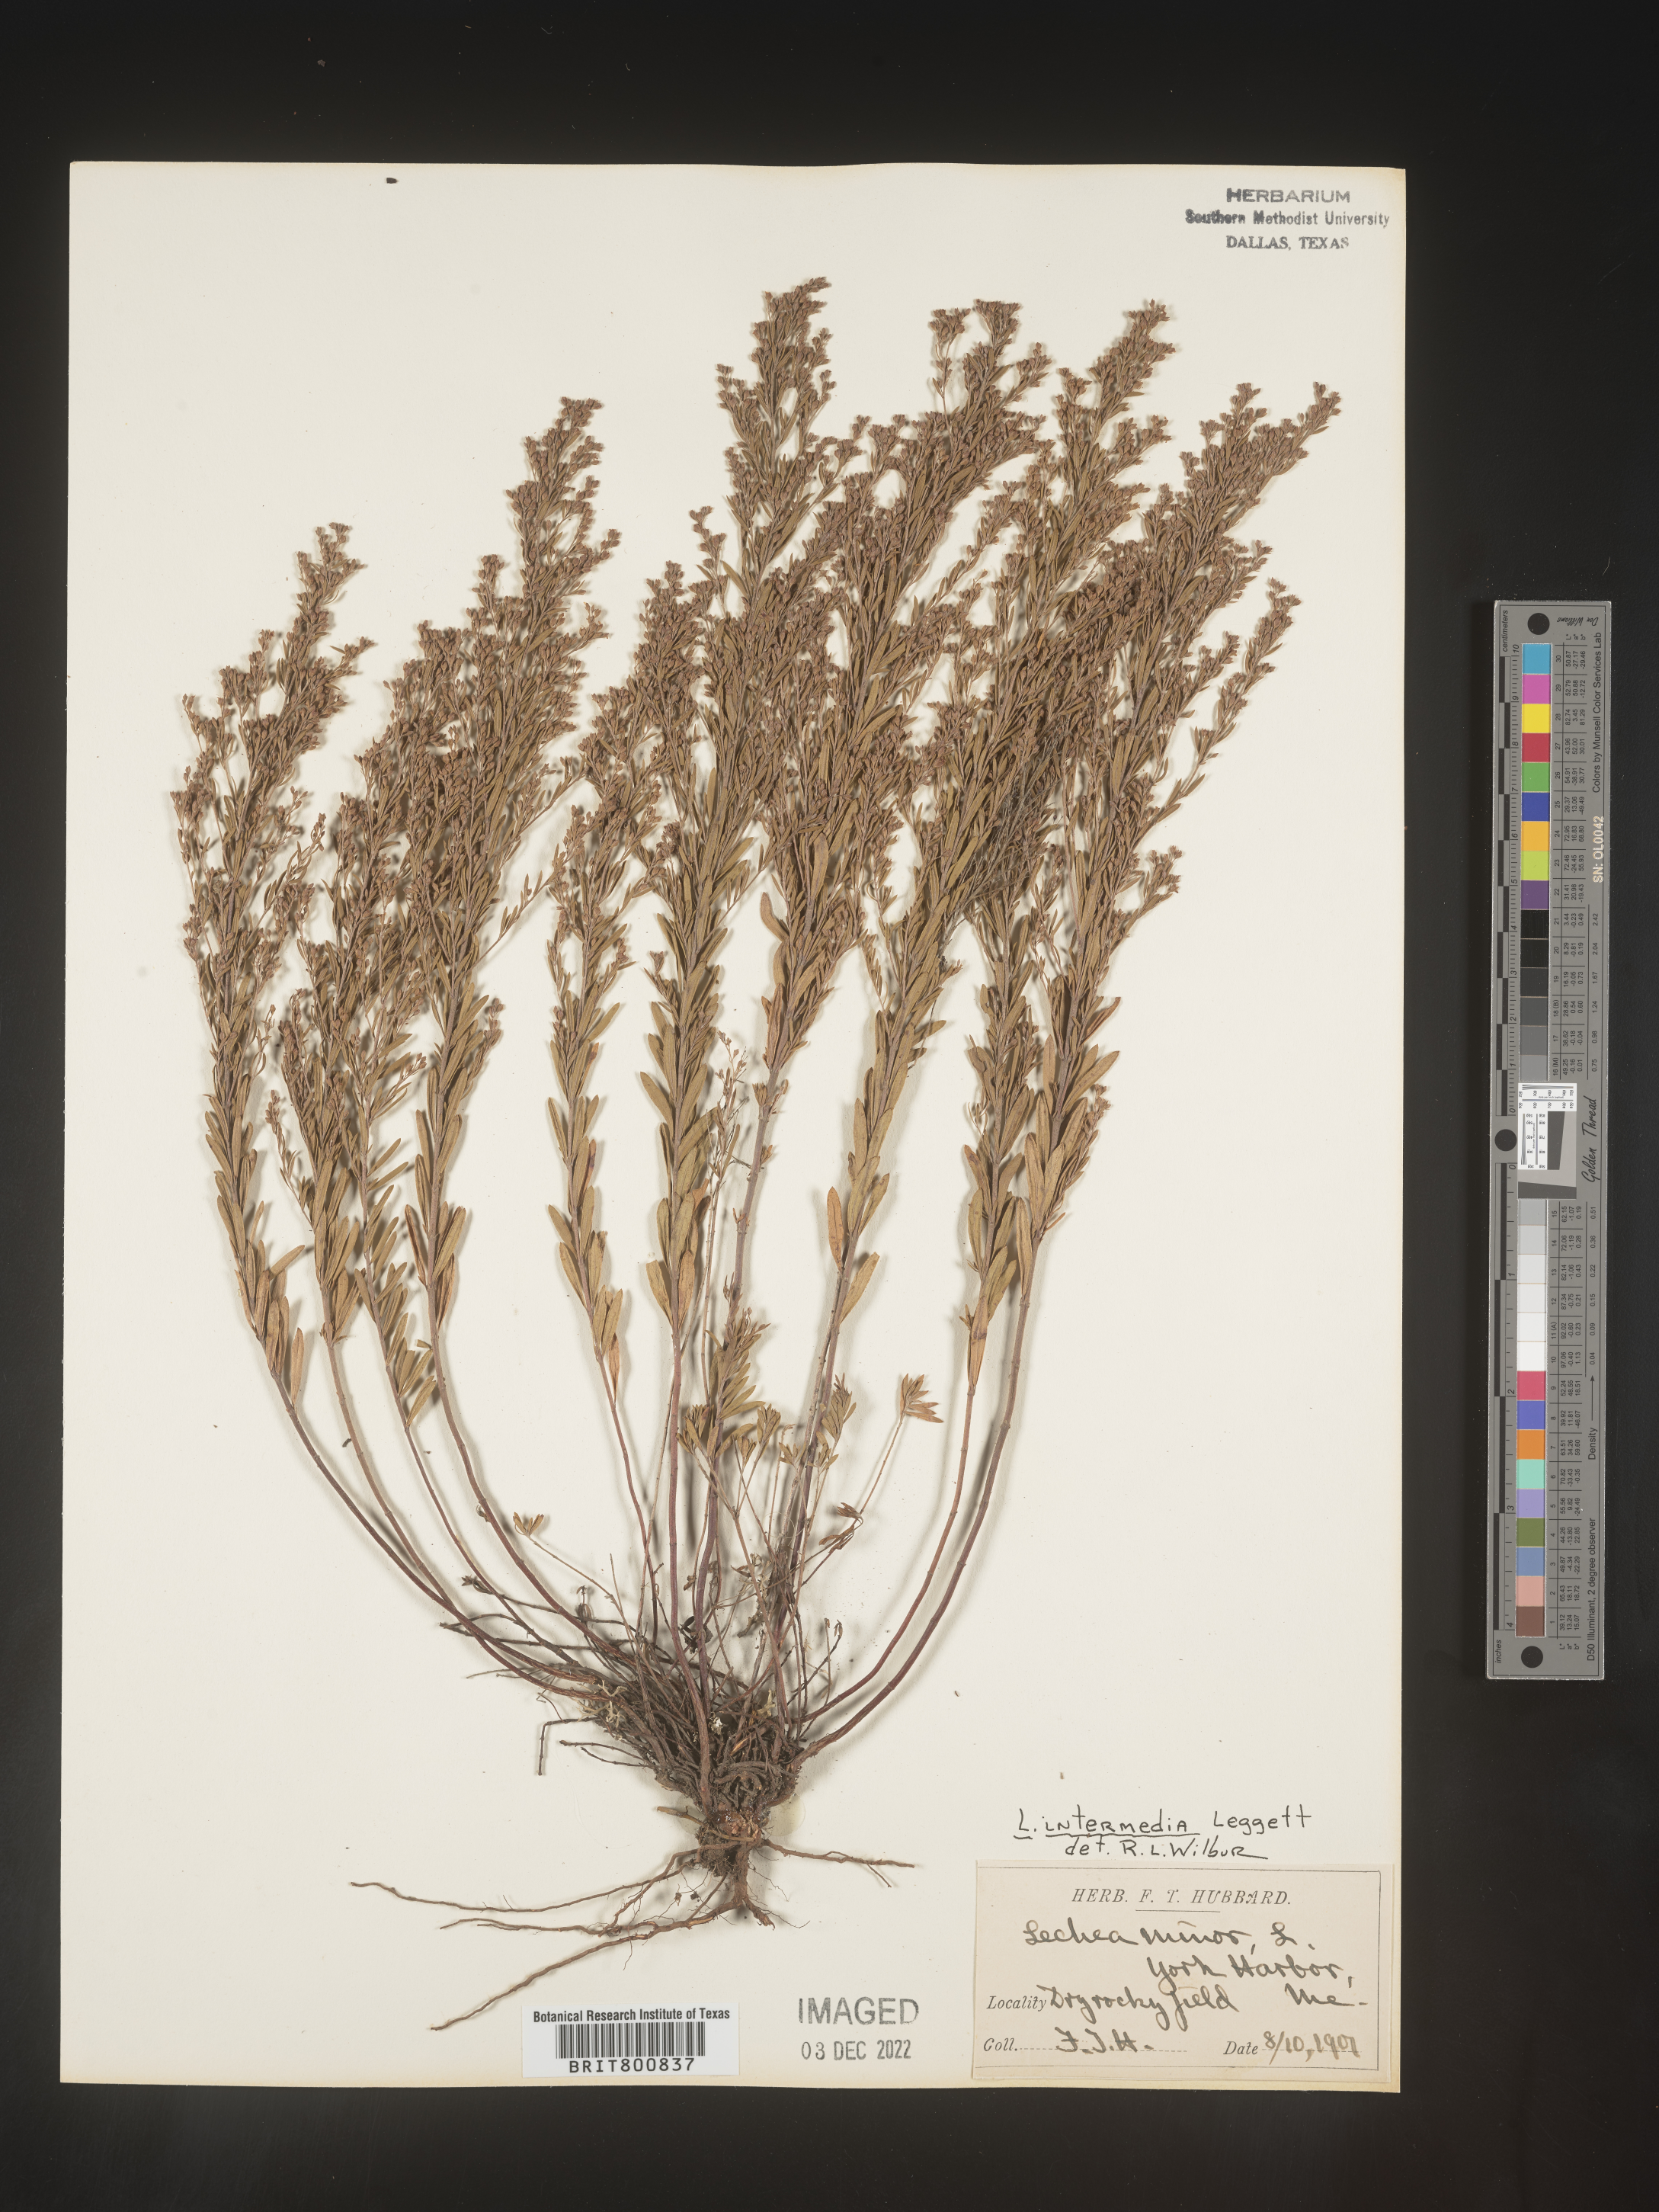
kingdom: Plantae
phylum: Tracheophyta
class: Magnoliopsida
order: Malvales
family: Cistaceae
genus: Lechea
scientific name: Lechea intermedia
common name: Intermediate pinweed
